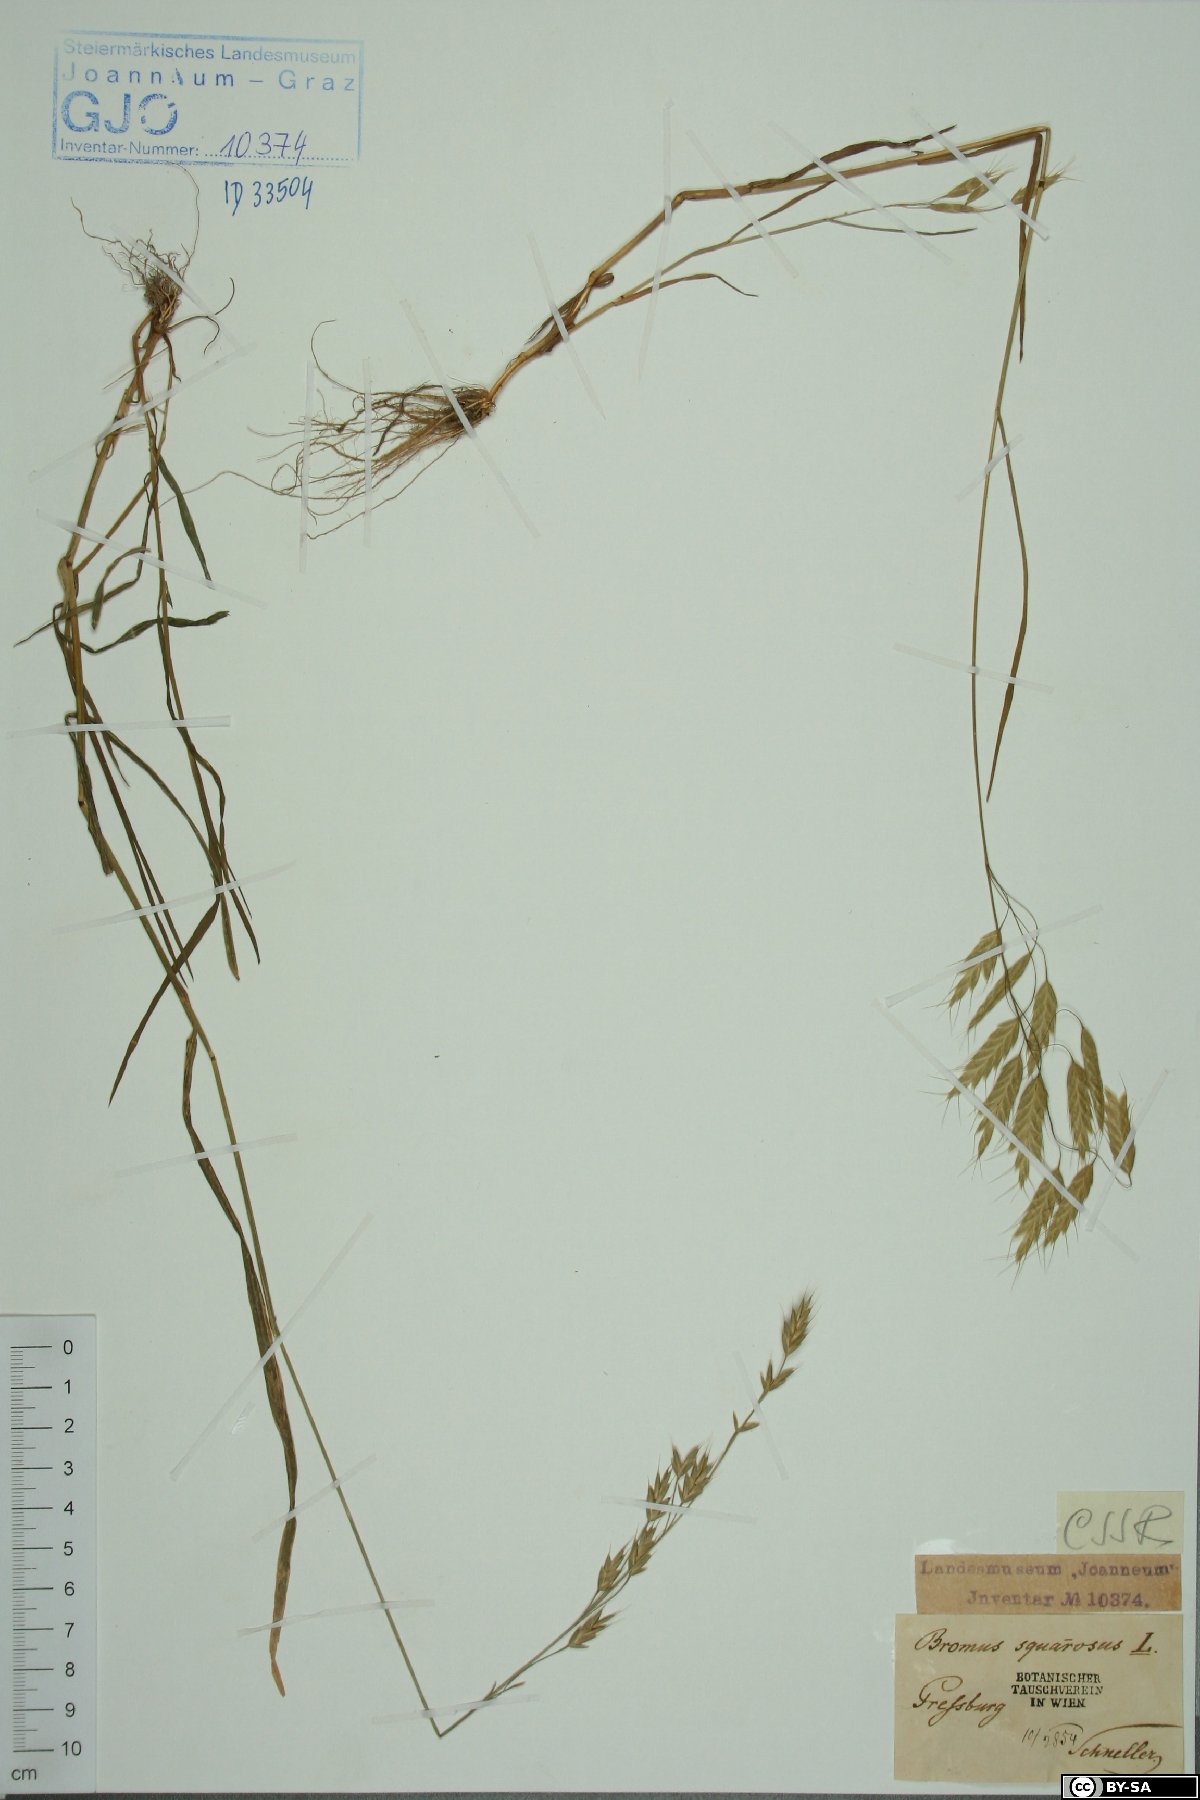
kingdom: Plantae
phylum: Tracheophyta
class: Liliopsida
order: Poales
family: Poaceae
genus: Bromus
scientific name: Bromus squarrosus
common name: Corn brome
